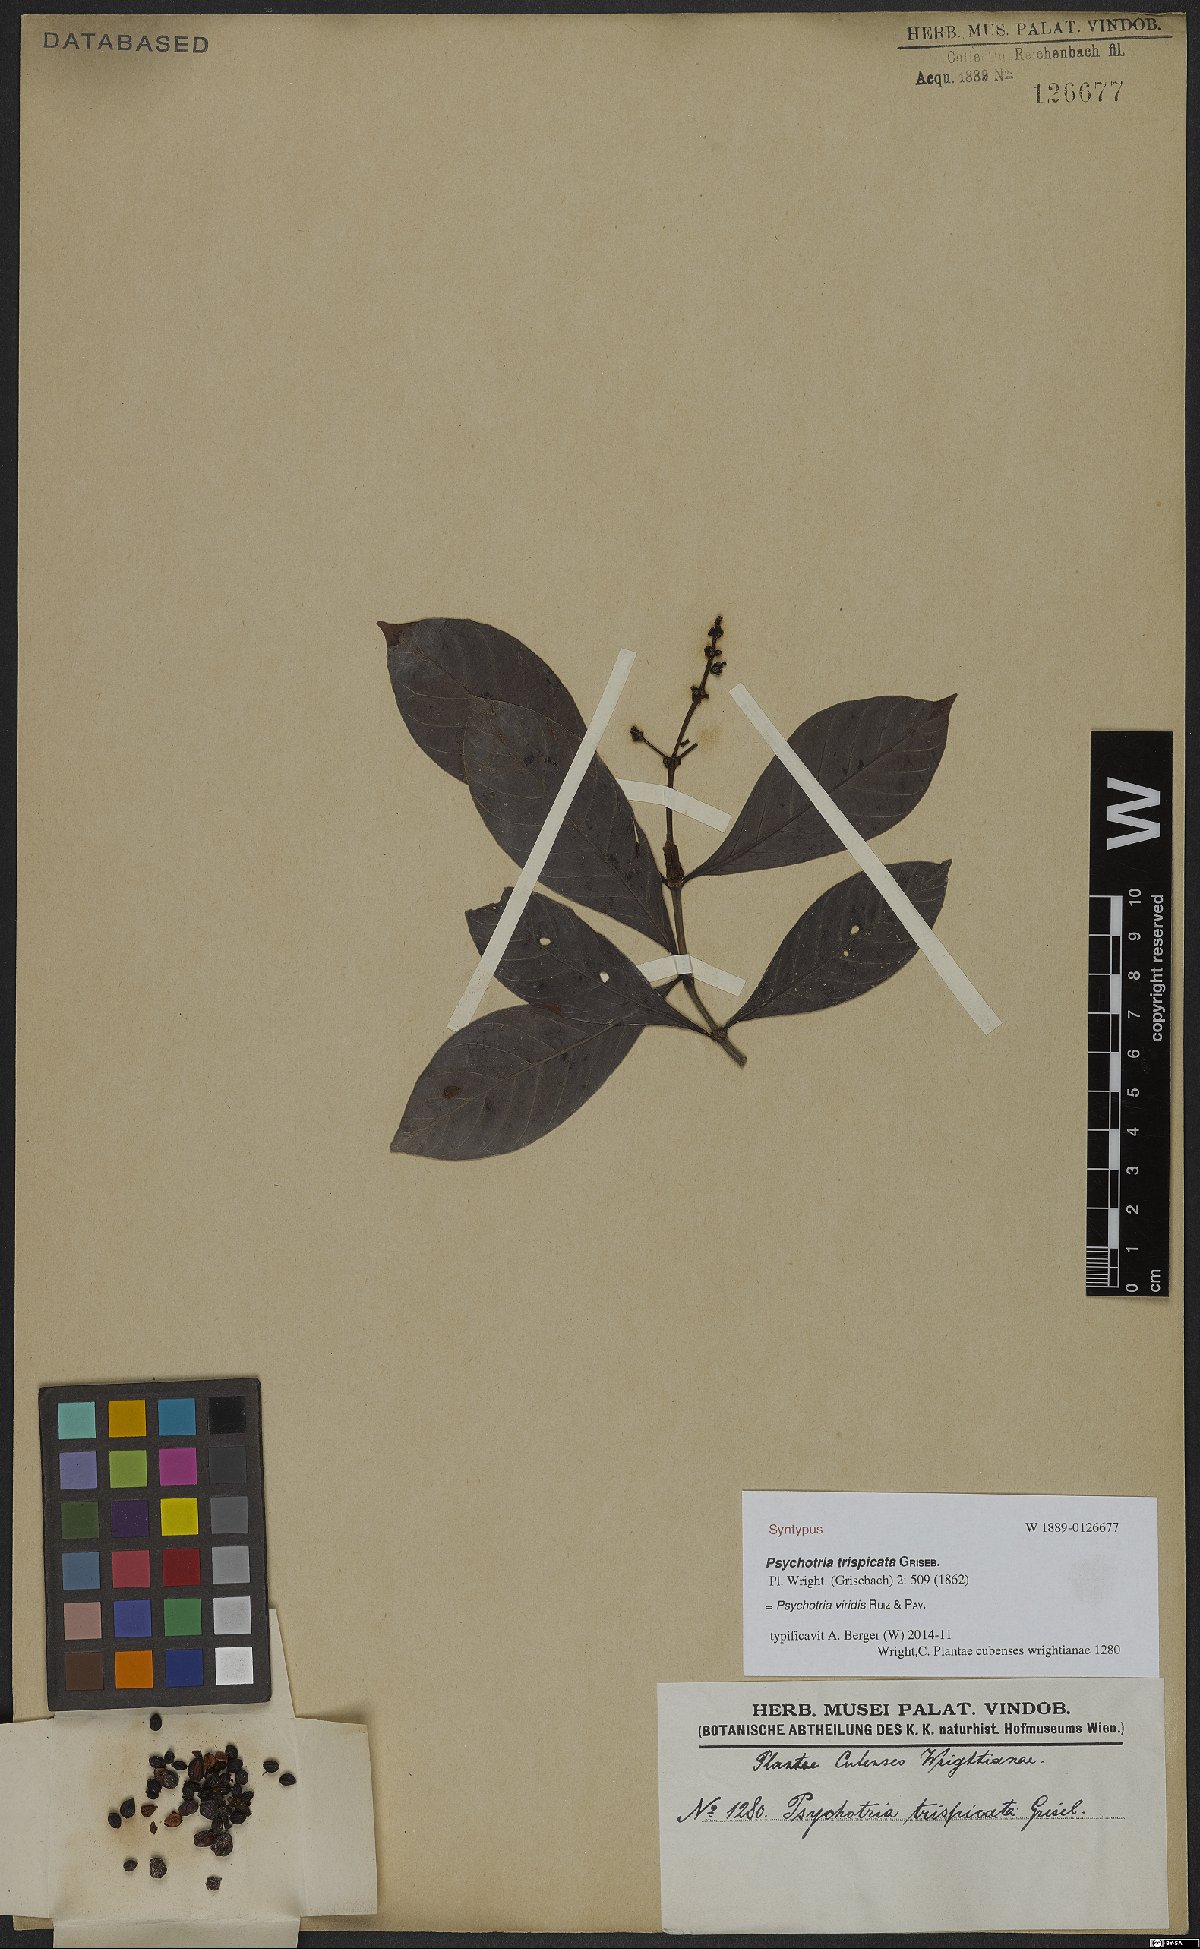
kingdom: Plantae
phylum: Tracheophyta
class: Magnoliopsida
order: Gentianales
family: Rubiaceae
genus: Psychotria
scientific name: Psychotria viridis
